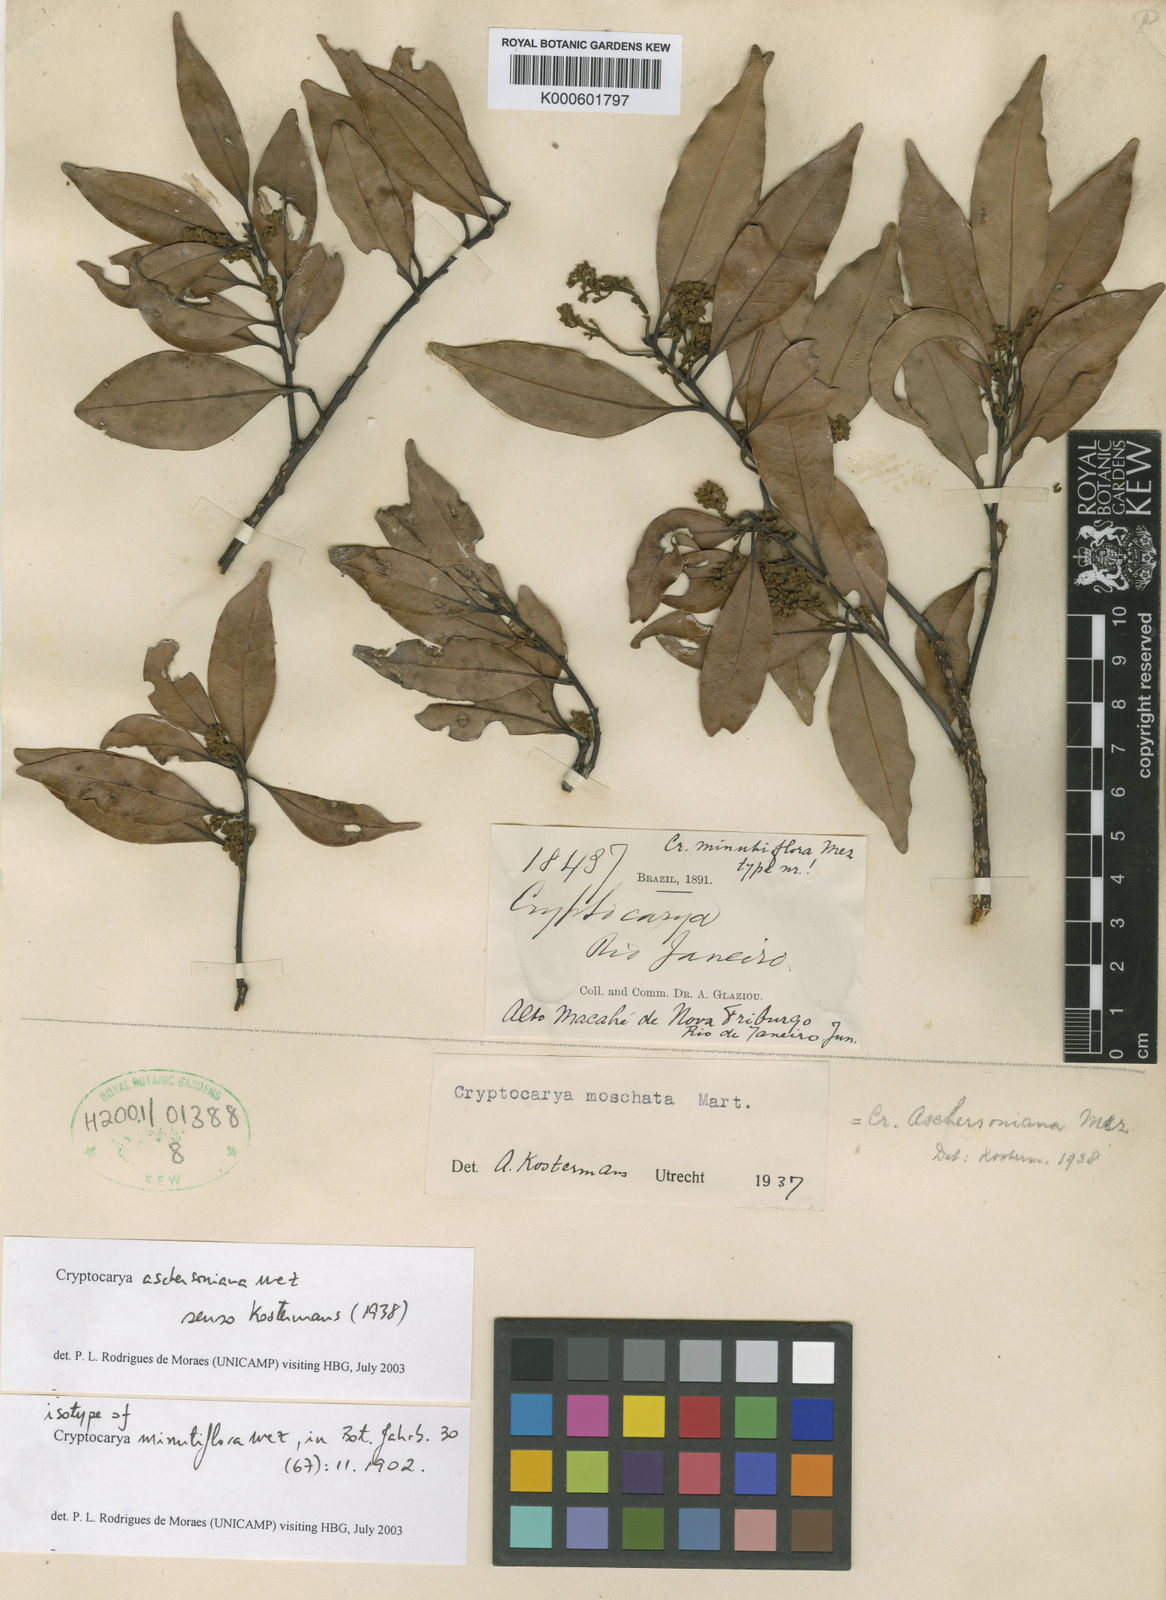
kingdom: Plantae
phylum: Tracheophyta
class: Magnoliopsida
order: Laurales
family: Lauraceae
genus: Cryptocarya
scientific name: Cryptocarya aschersoniana
